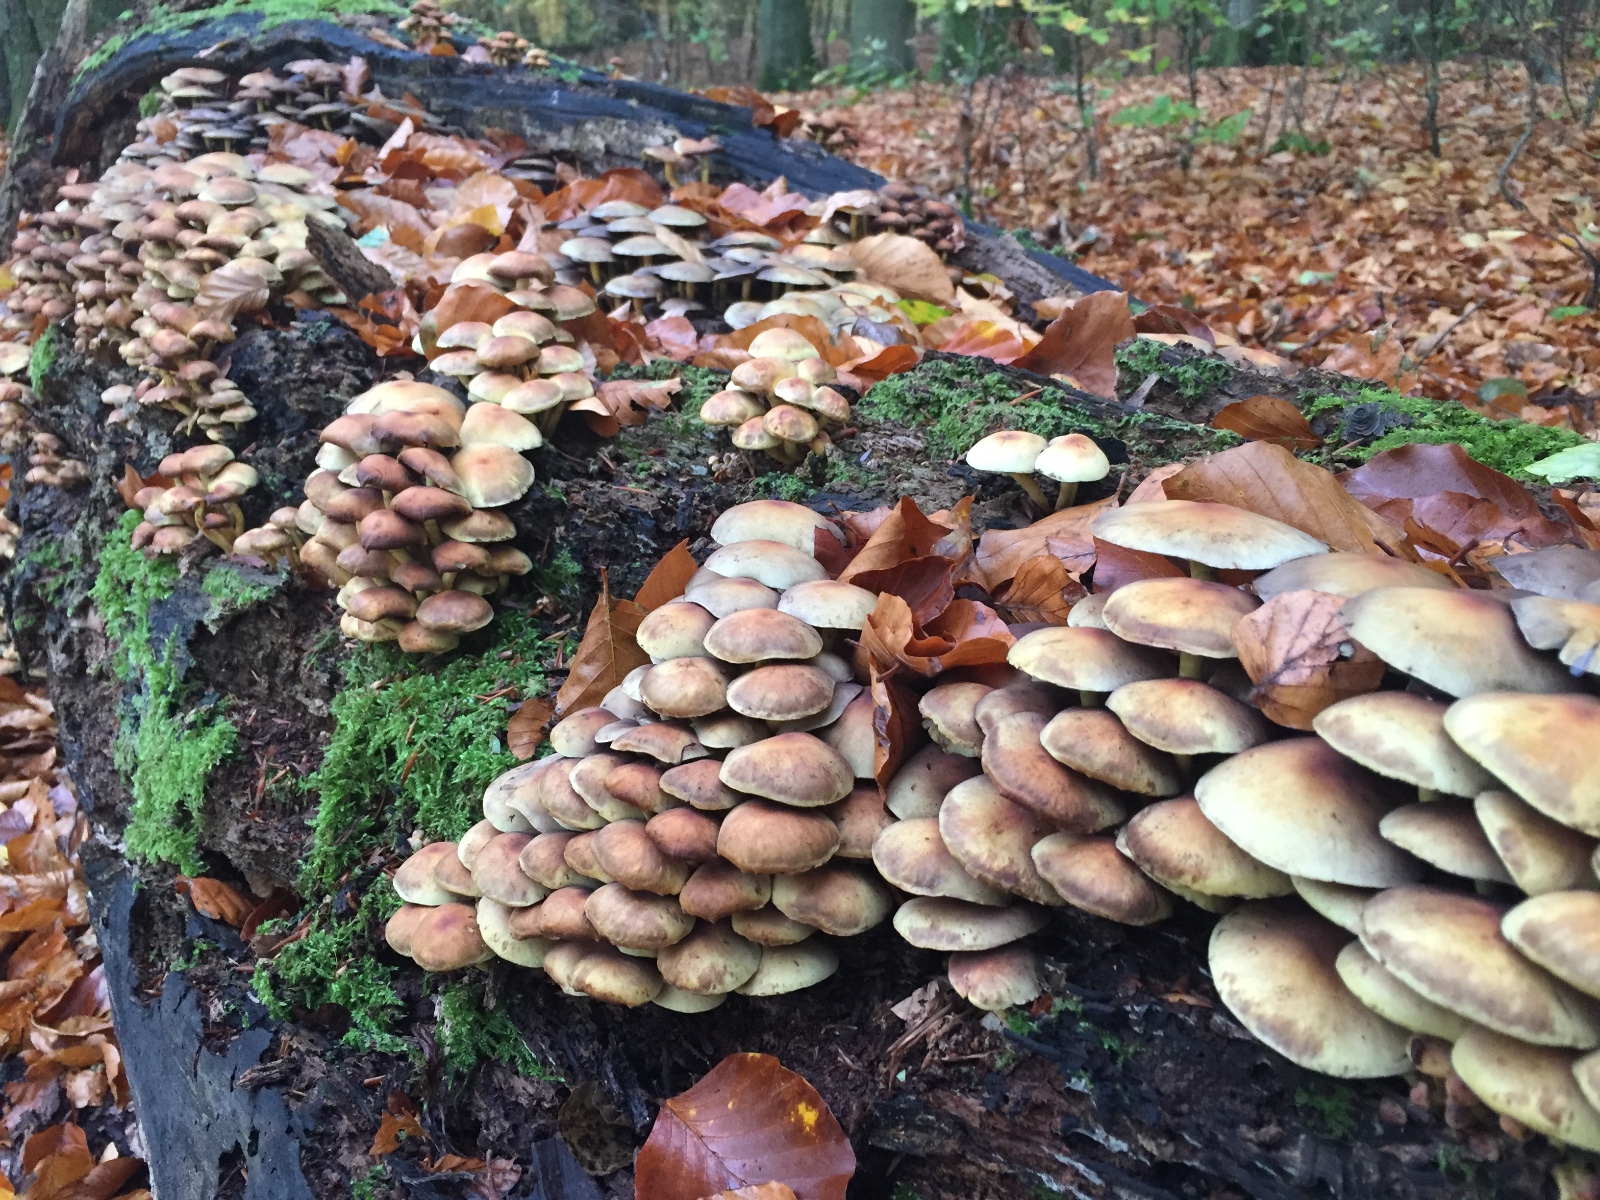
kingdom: Fungi
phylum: Basidiomycota
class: Agaricomycetes
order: Agaricales
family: Strophariaceae
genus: Hypholoma
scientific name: Hypholoma fasciculare
